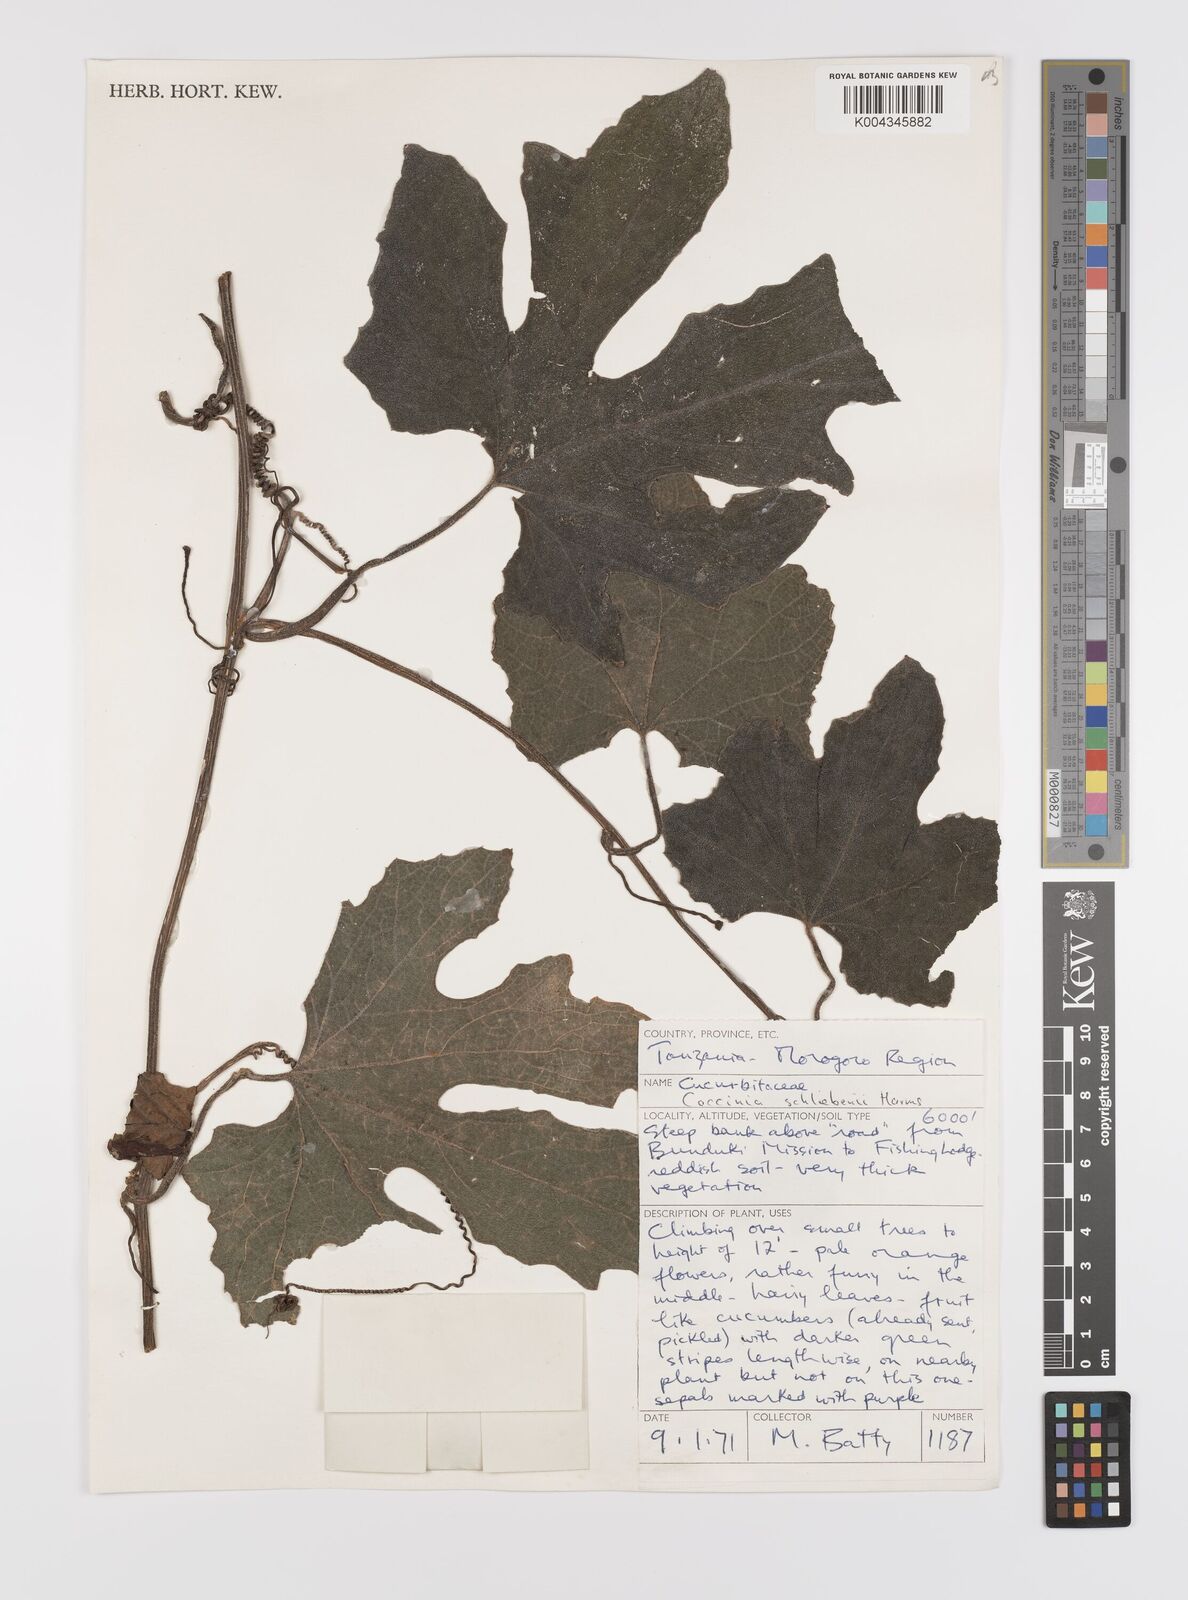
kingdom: Plantae
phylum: Tracheophyta
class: Magnoliopsida
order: Cucurbitales
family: Cucurbitaceae
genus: Coccinia
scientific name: Coccinia schliebenii
